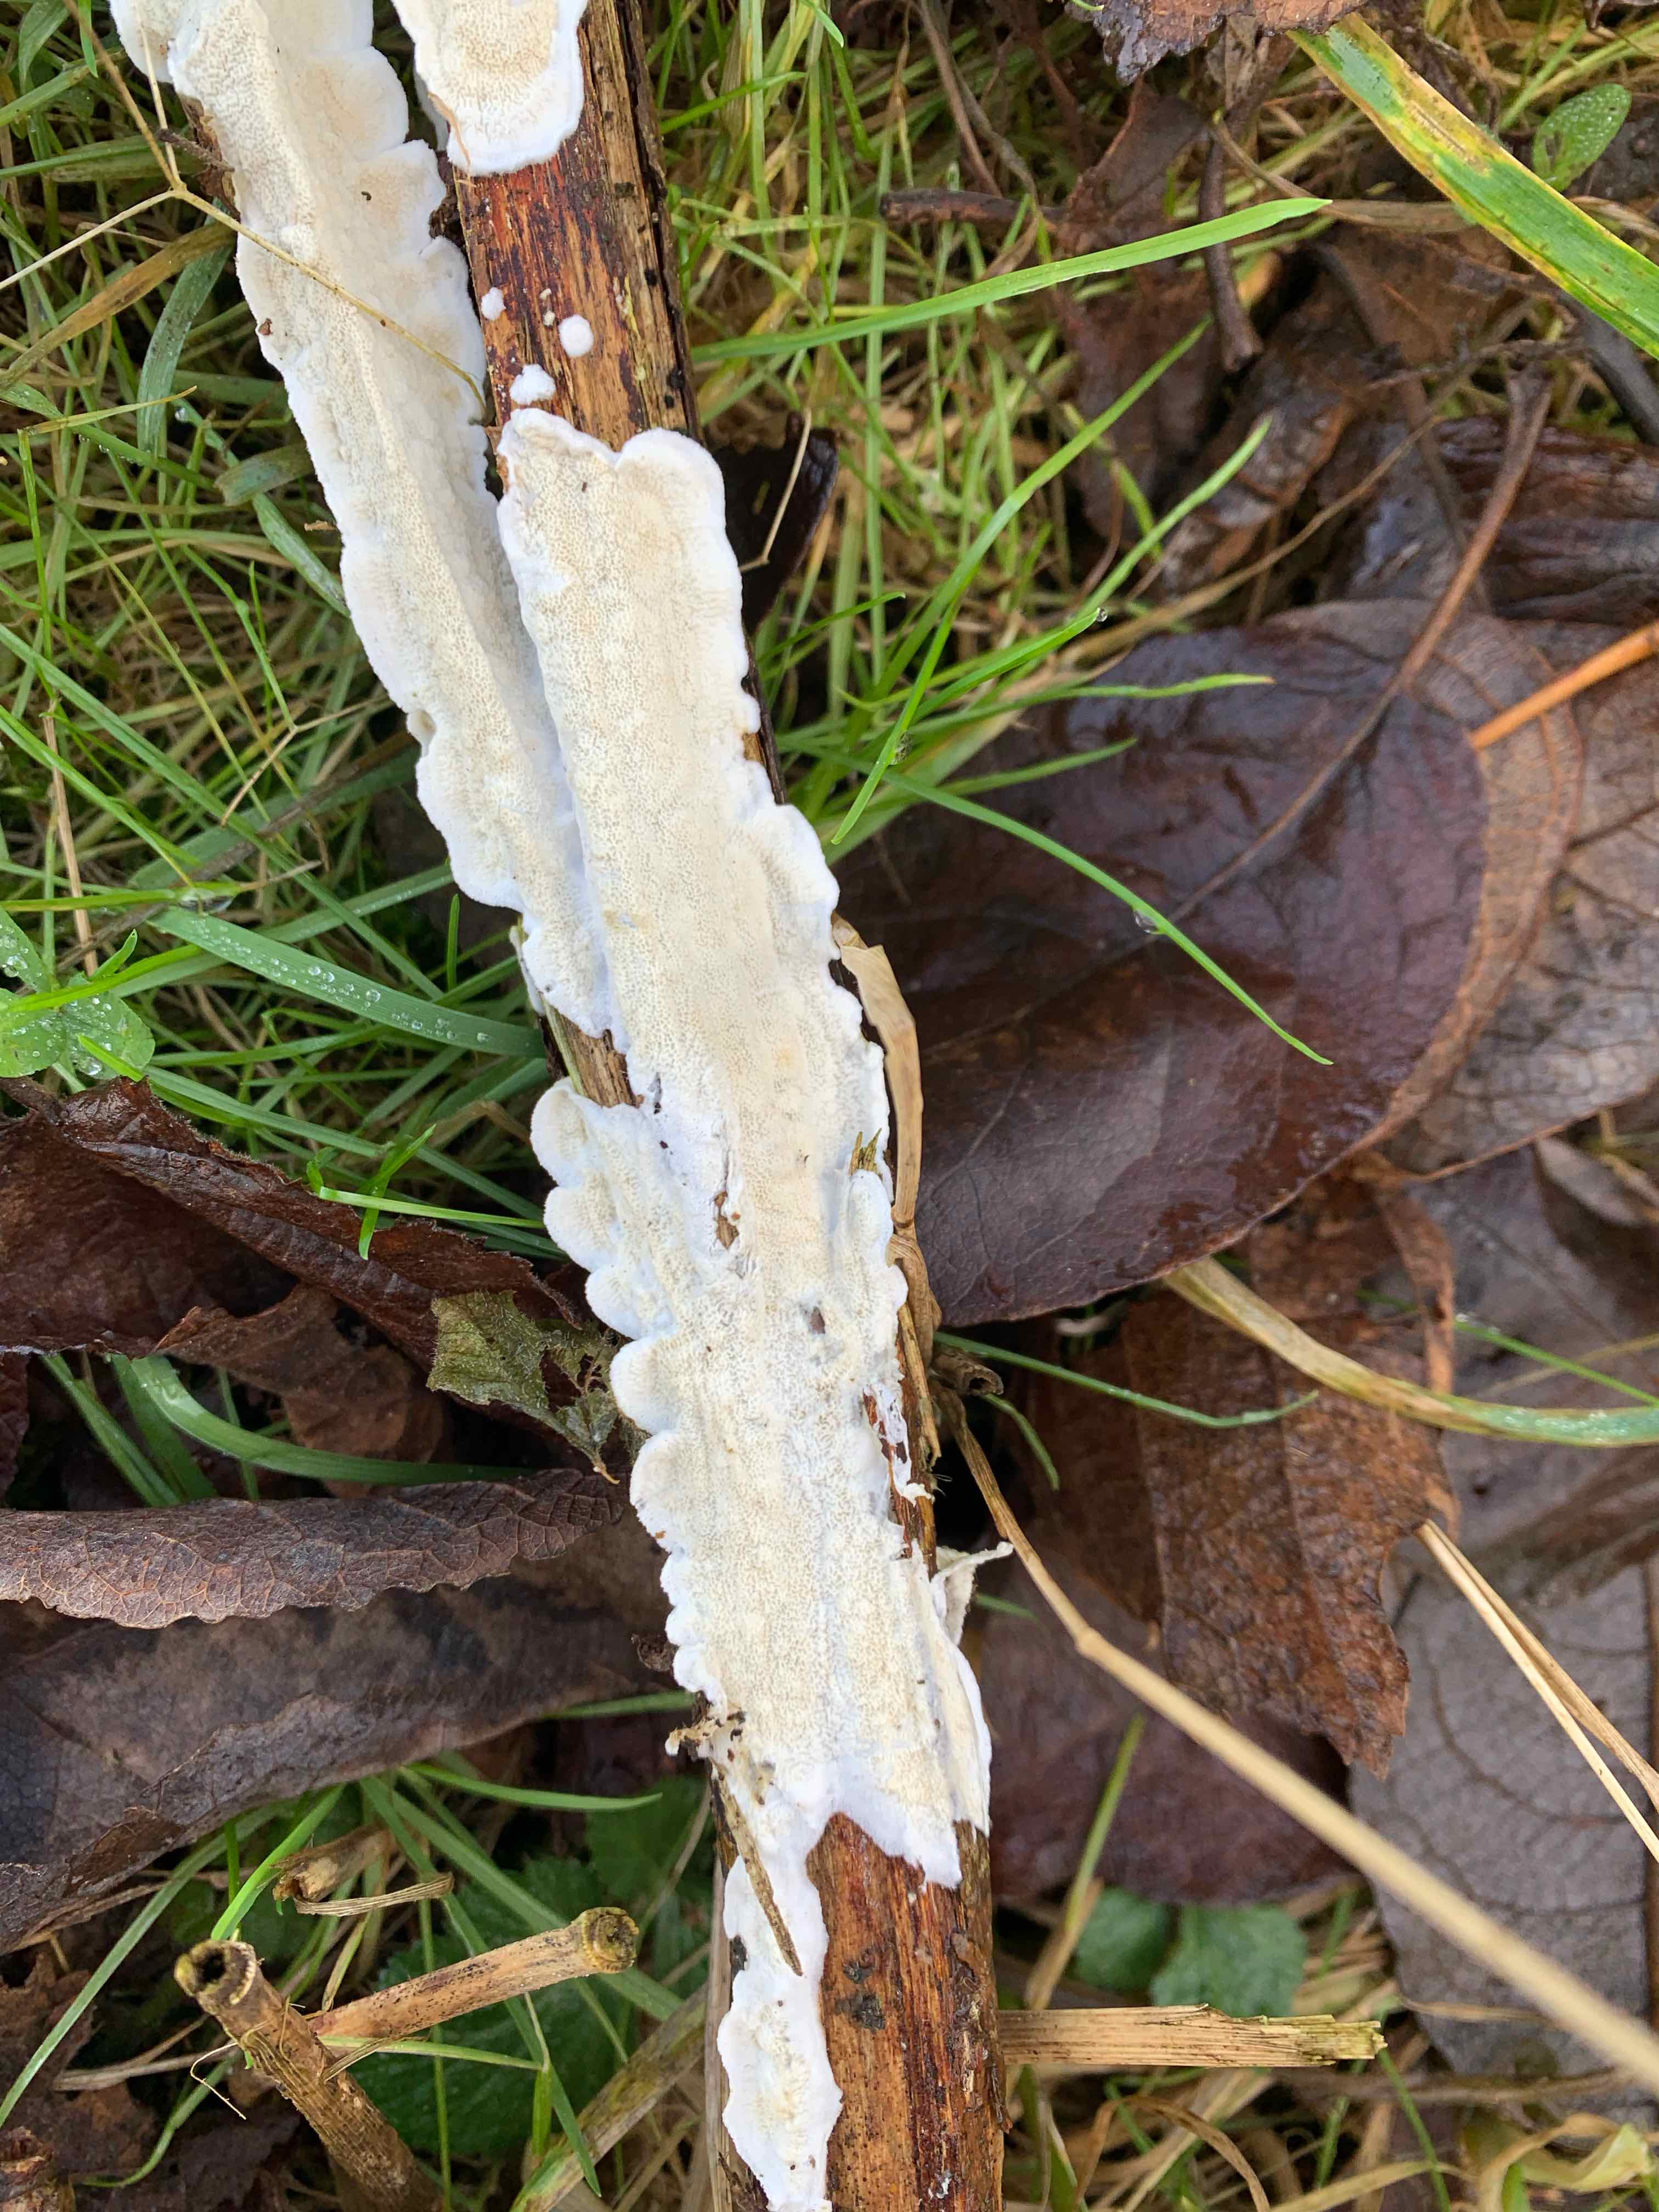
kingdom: Fungi
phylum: Basidiomycota
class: Agaricomycetes
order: Polyporales
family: Irpicaceae
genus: Byssomerulius
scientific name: Byssomerulius corium
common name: læder-åresvamp
